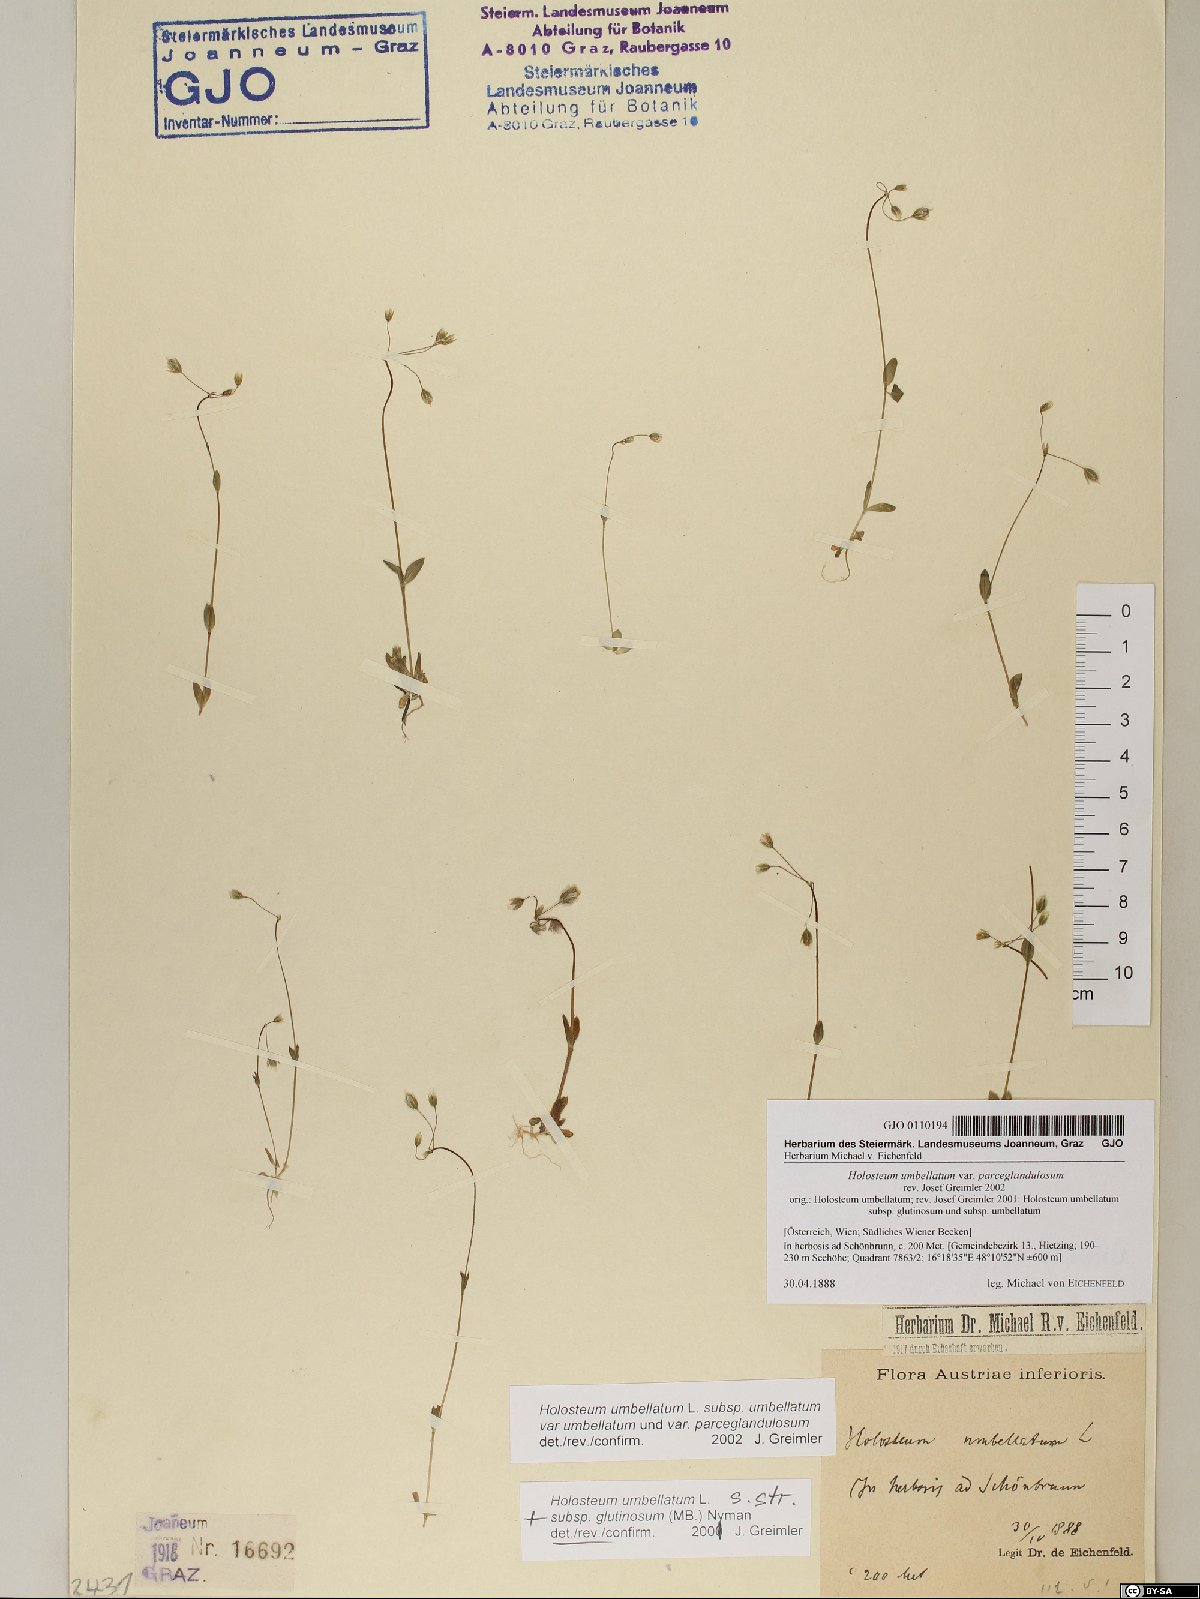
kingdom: Plantae
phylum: Tracheophyta
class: Magnoliopsida
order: Caryophyllales
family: Caryophyllaceae
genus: Holosteum
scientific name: Holosteum umbellatum
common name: Jagged chickweed
